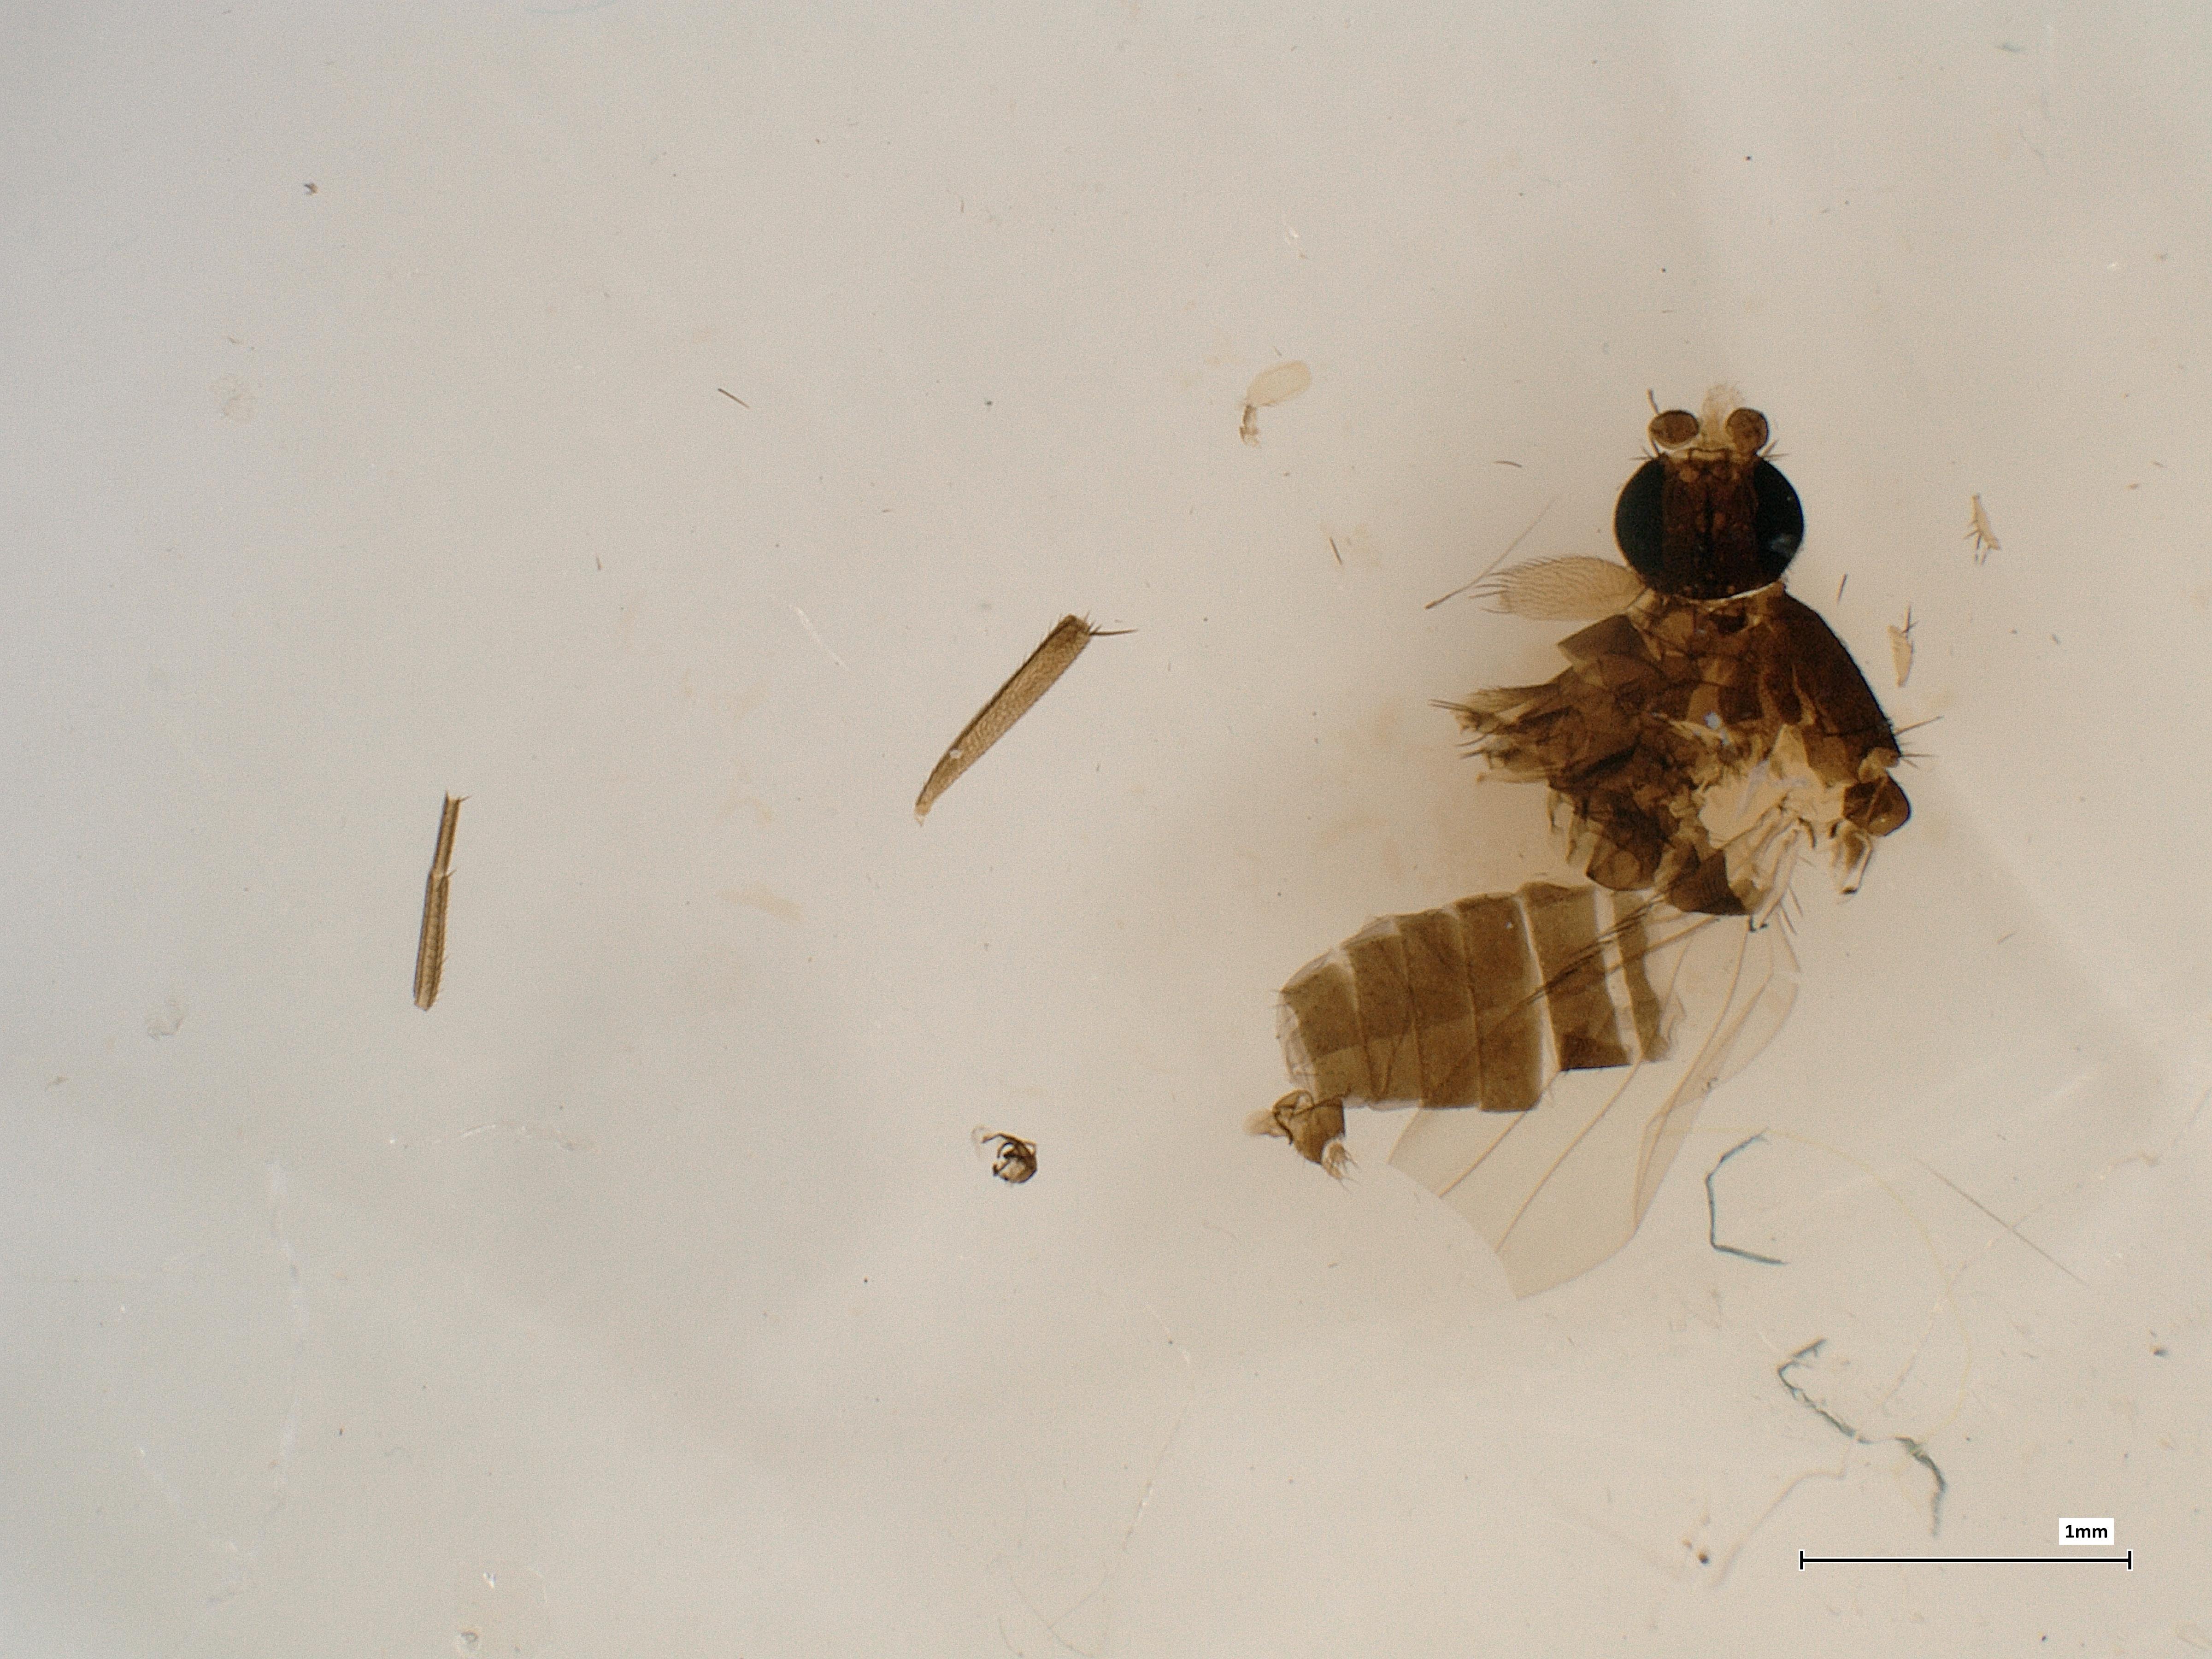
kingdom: Animalia
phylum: Arthropoda
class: Insecta
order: Diptera
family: Phoridae
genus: Megaselia
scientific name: Megaselia nectergata
